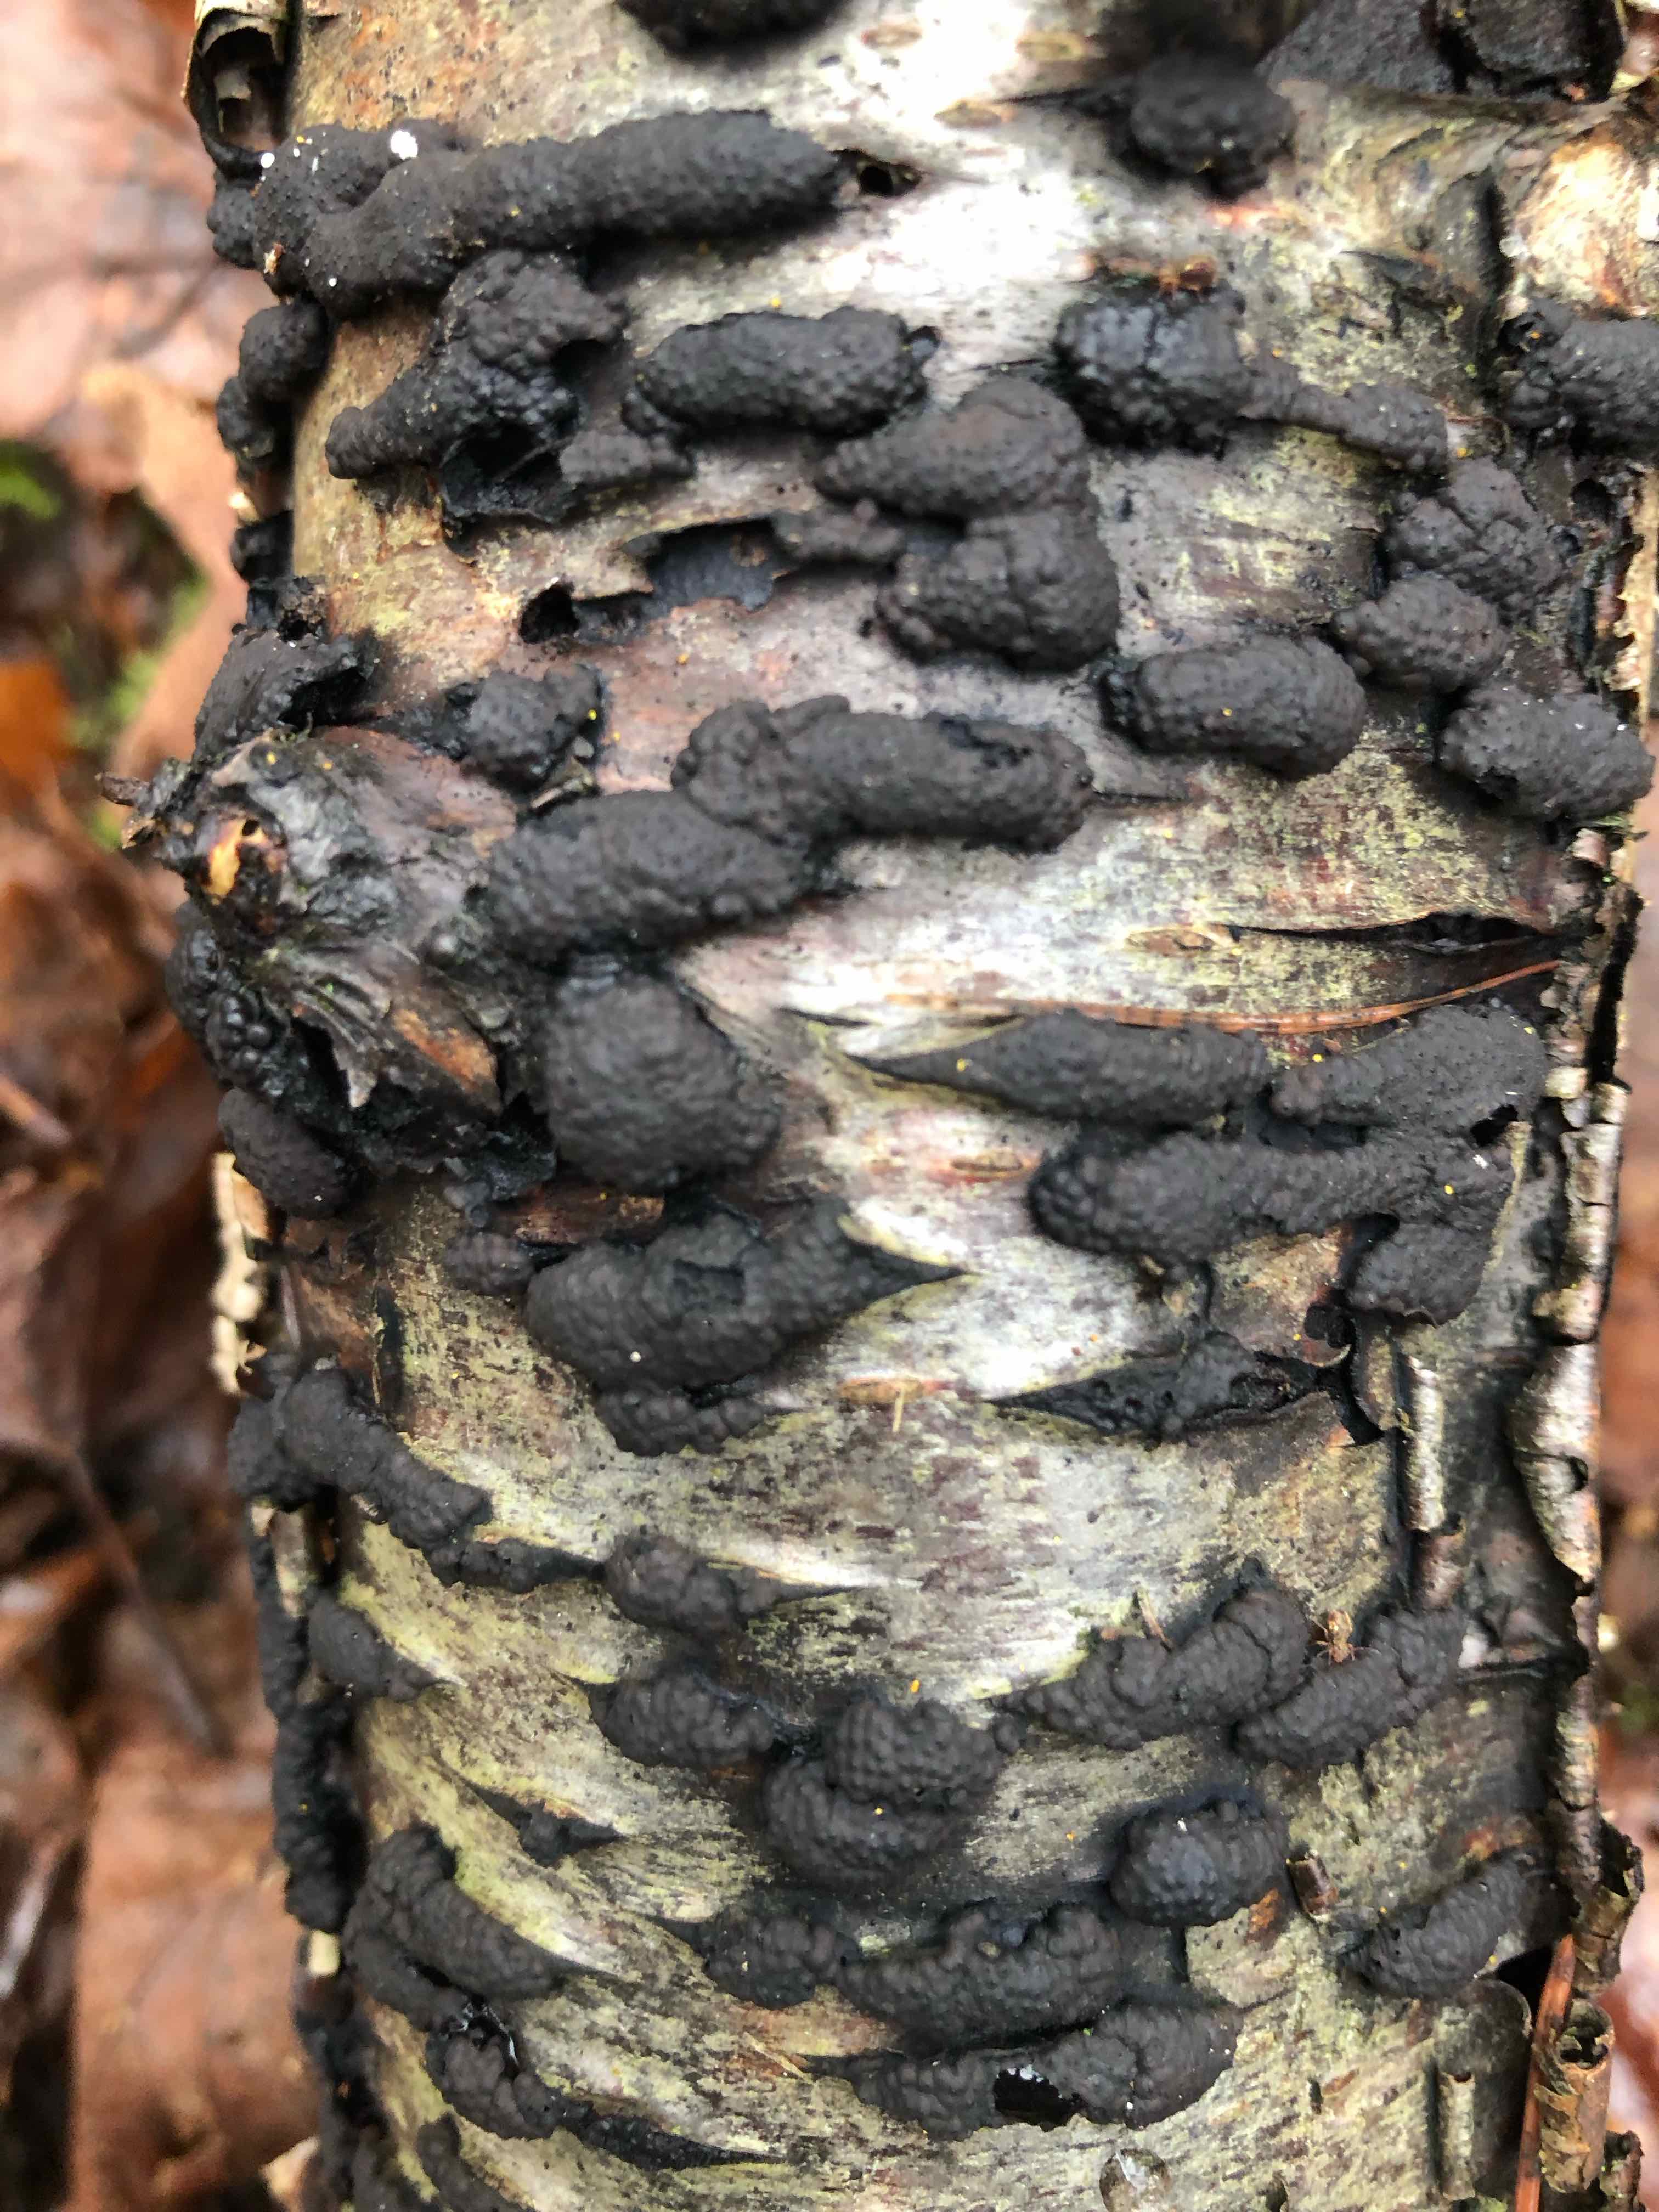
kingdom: Fungi
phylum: Ascomycota
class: Sordariomycetes
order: Xylariales
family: Hypoxylaceae
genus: Jackrogersella
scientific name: Jackrogersella multiformis
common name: foranderlig kulbær
